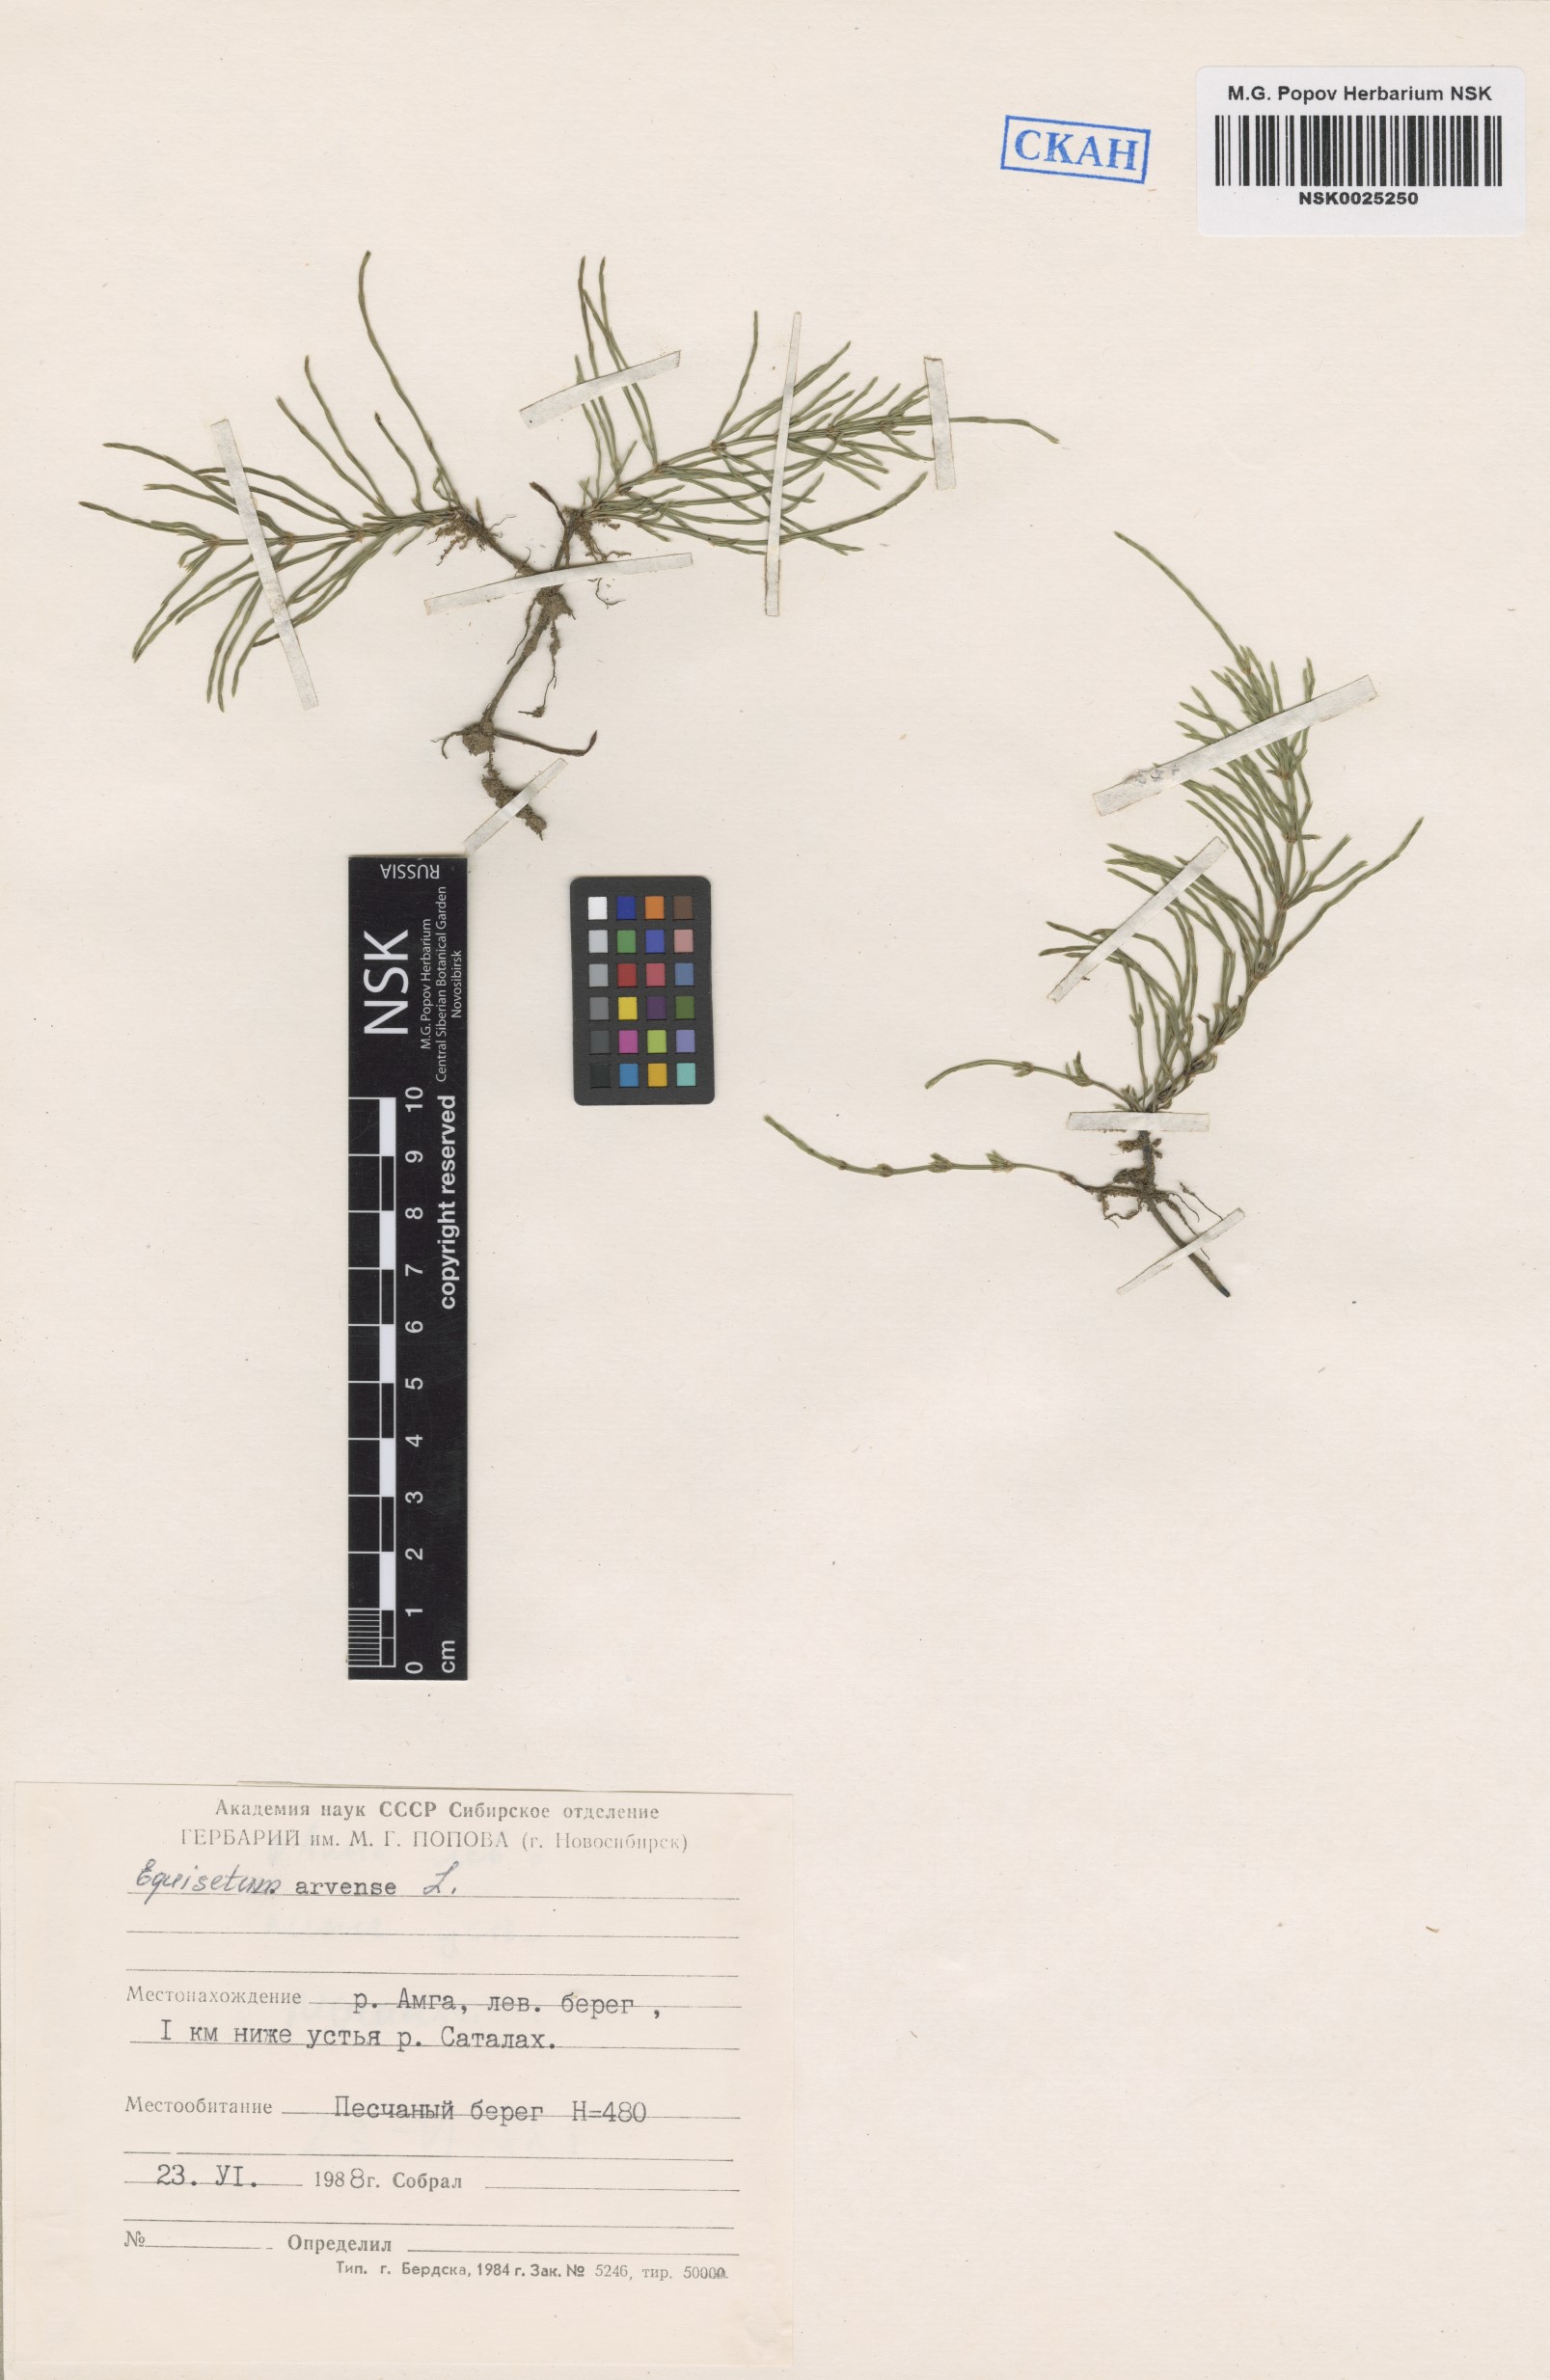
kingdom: Plantae
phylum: Tracheophyta
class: Polypodiopsida
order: Equisetales
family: Equisetaceae
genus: Equisetum
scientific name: Equisetum arvense
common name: Field horsetail
